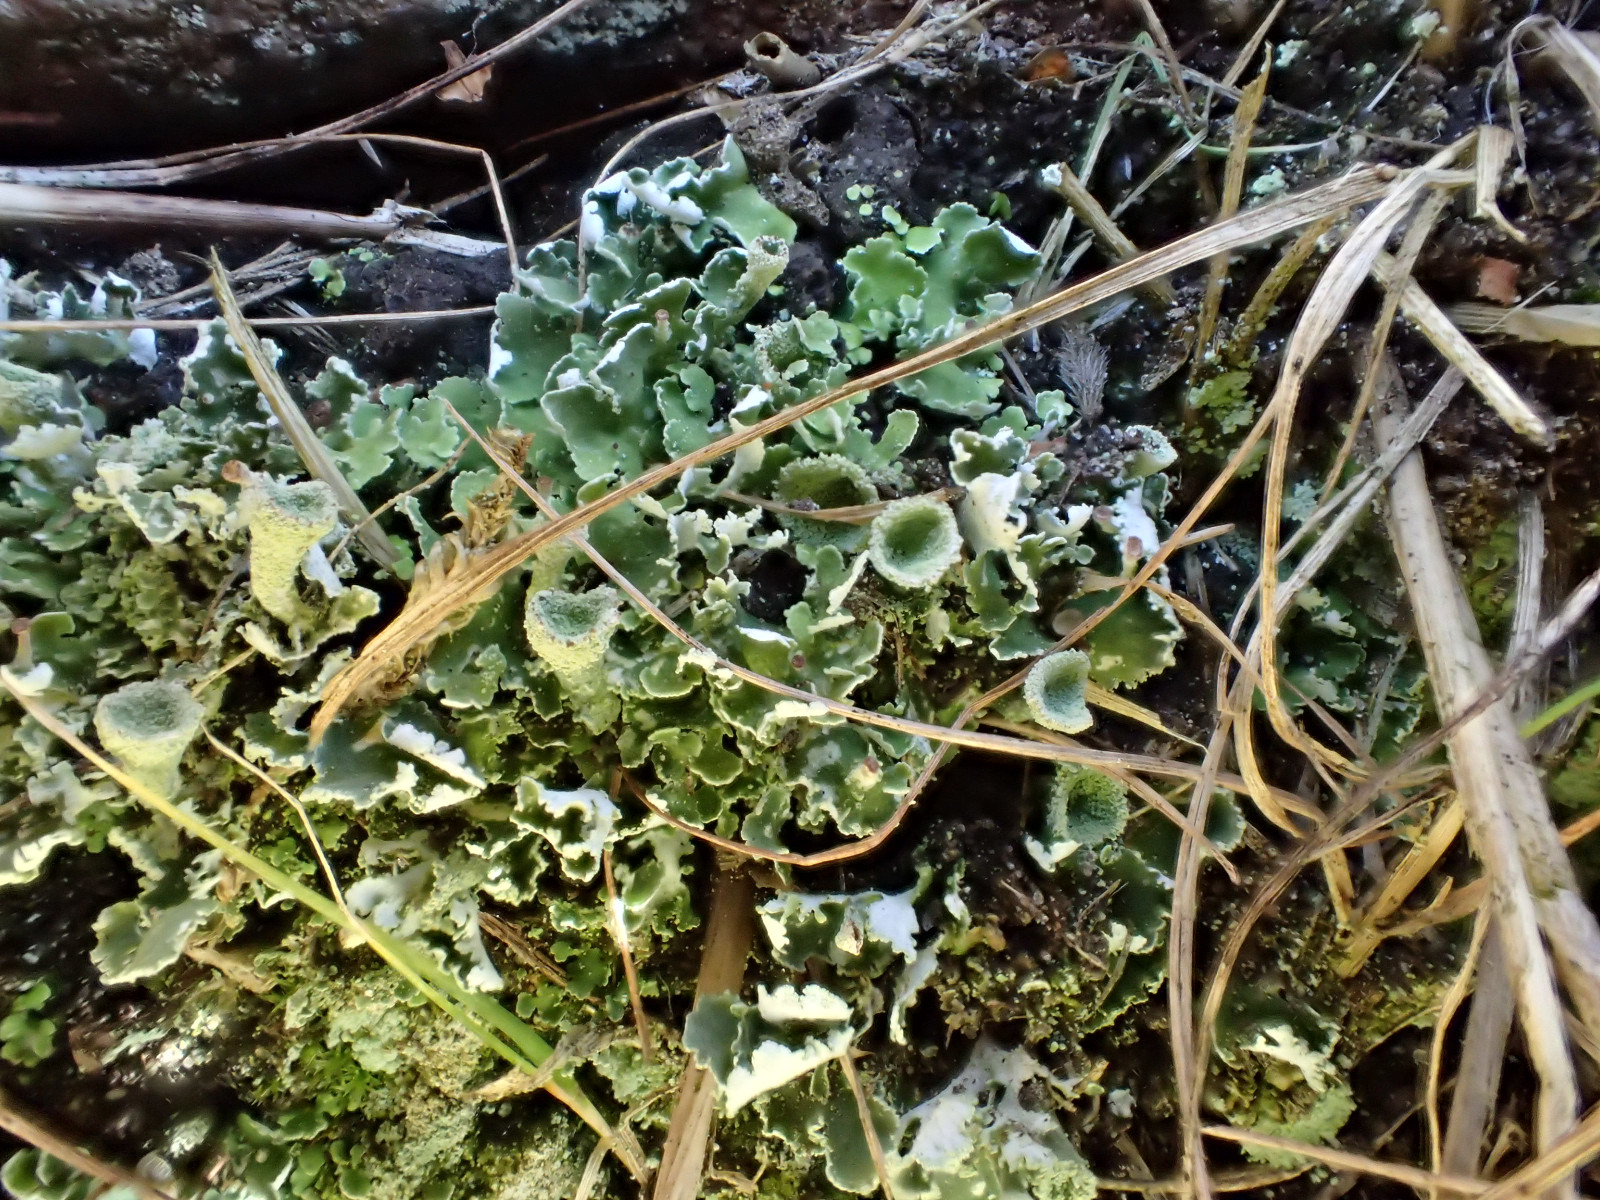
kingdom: Fungi
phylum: Ascomycota
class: Lecanoromycetes
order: Lecanorales
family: Cladoniaceae
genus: Cladonia
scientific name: Cladonia humilis
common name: lav bægerlav
